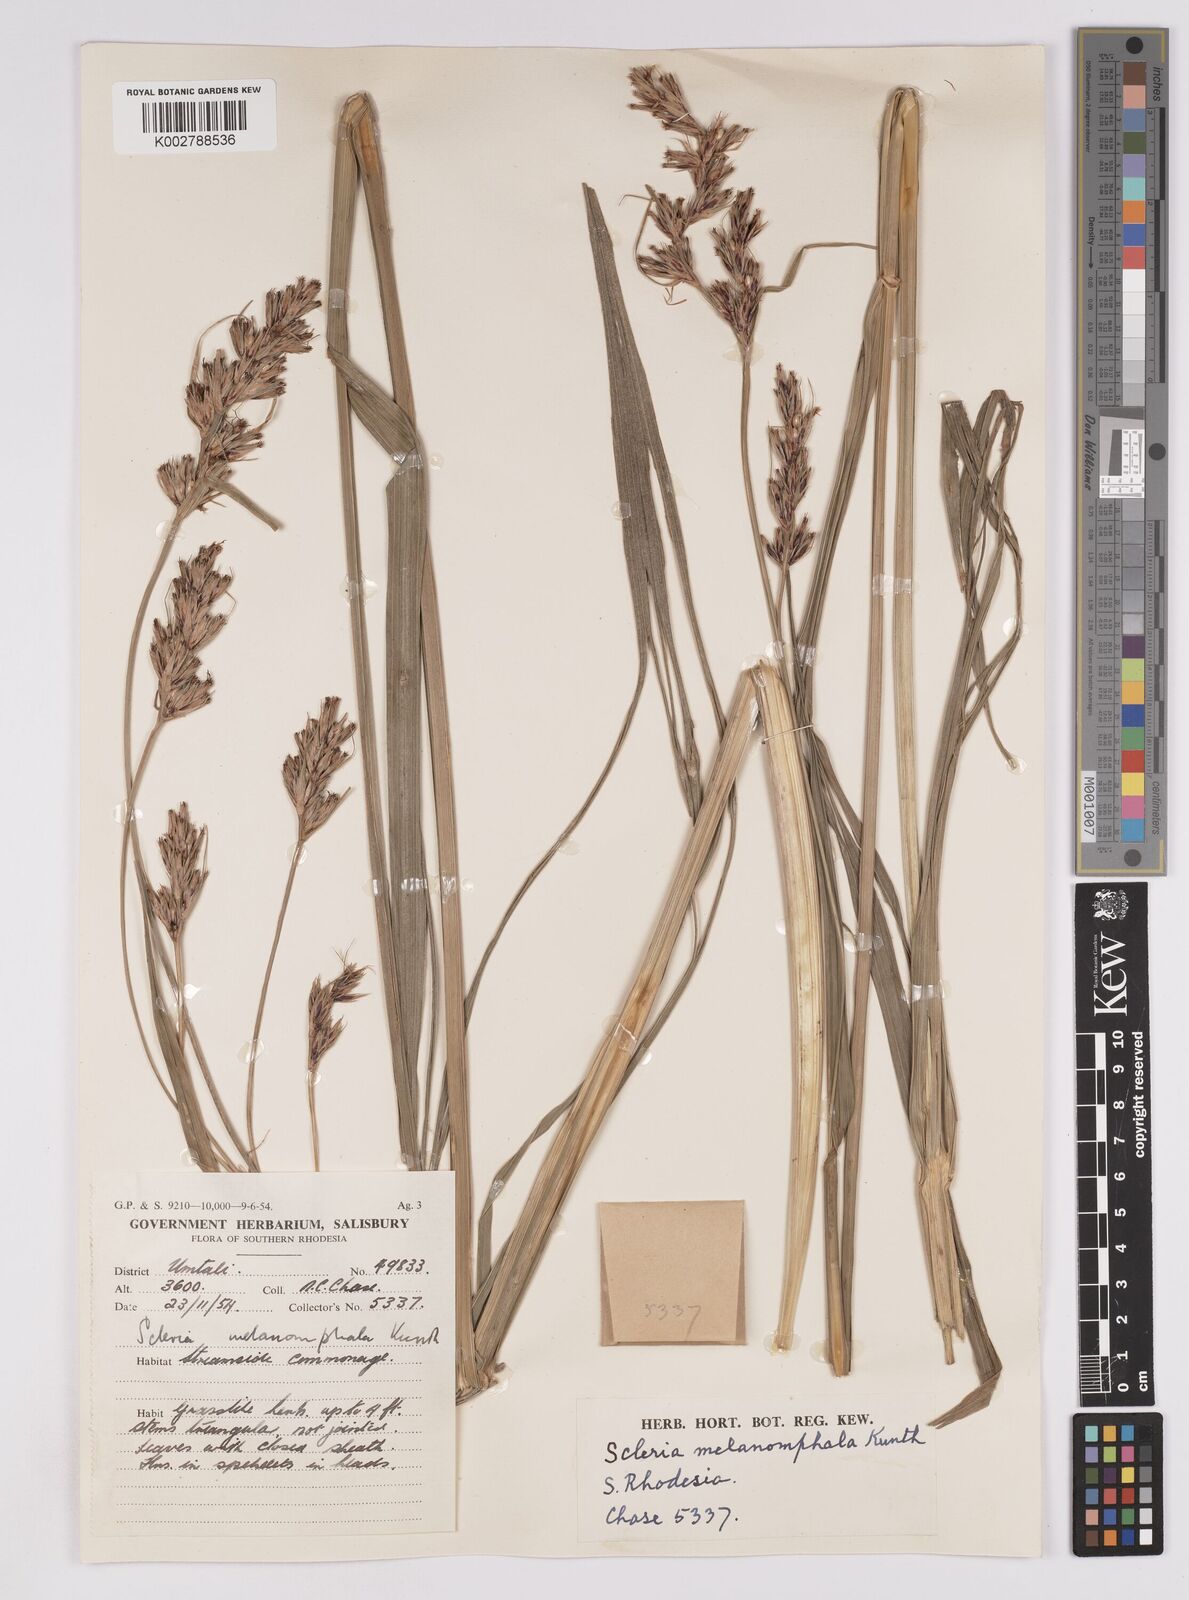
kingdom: Plantae
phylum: Tracheophyta
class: Liliopsida
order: Poales
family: Cyperaceae
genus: Scleria
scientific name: Scleria melanomphala
